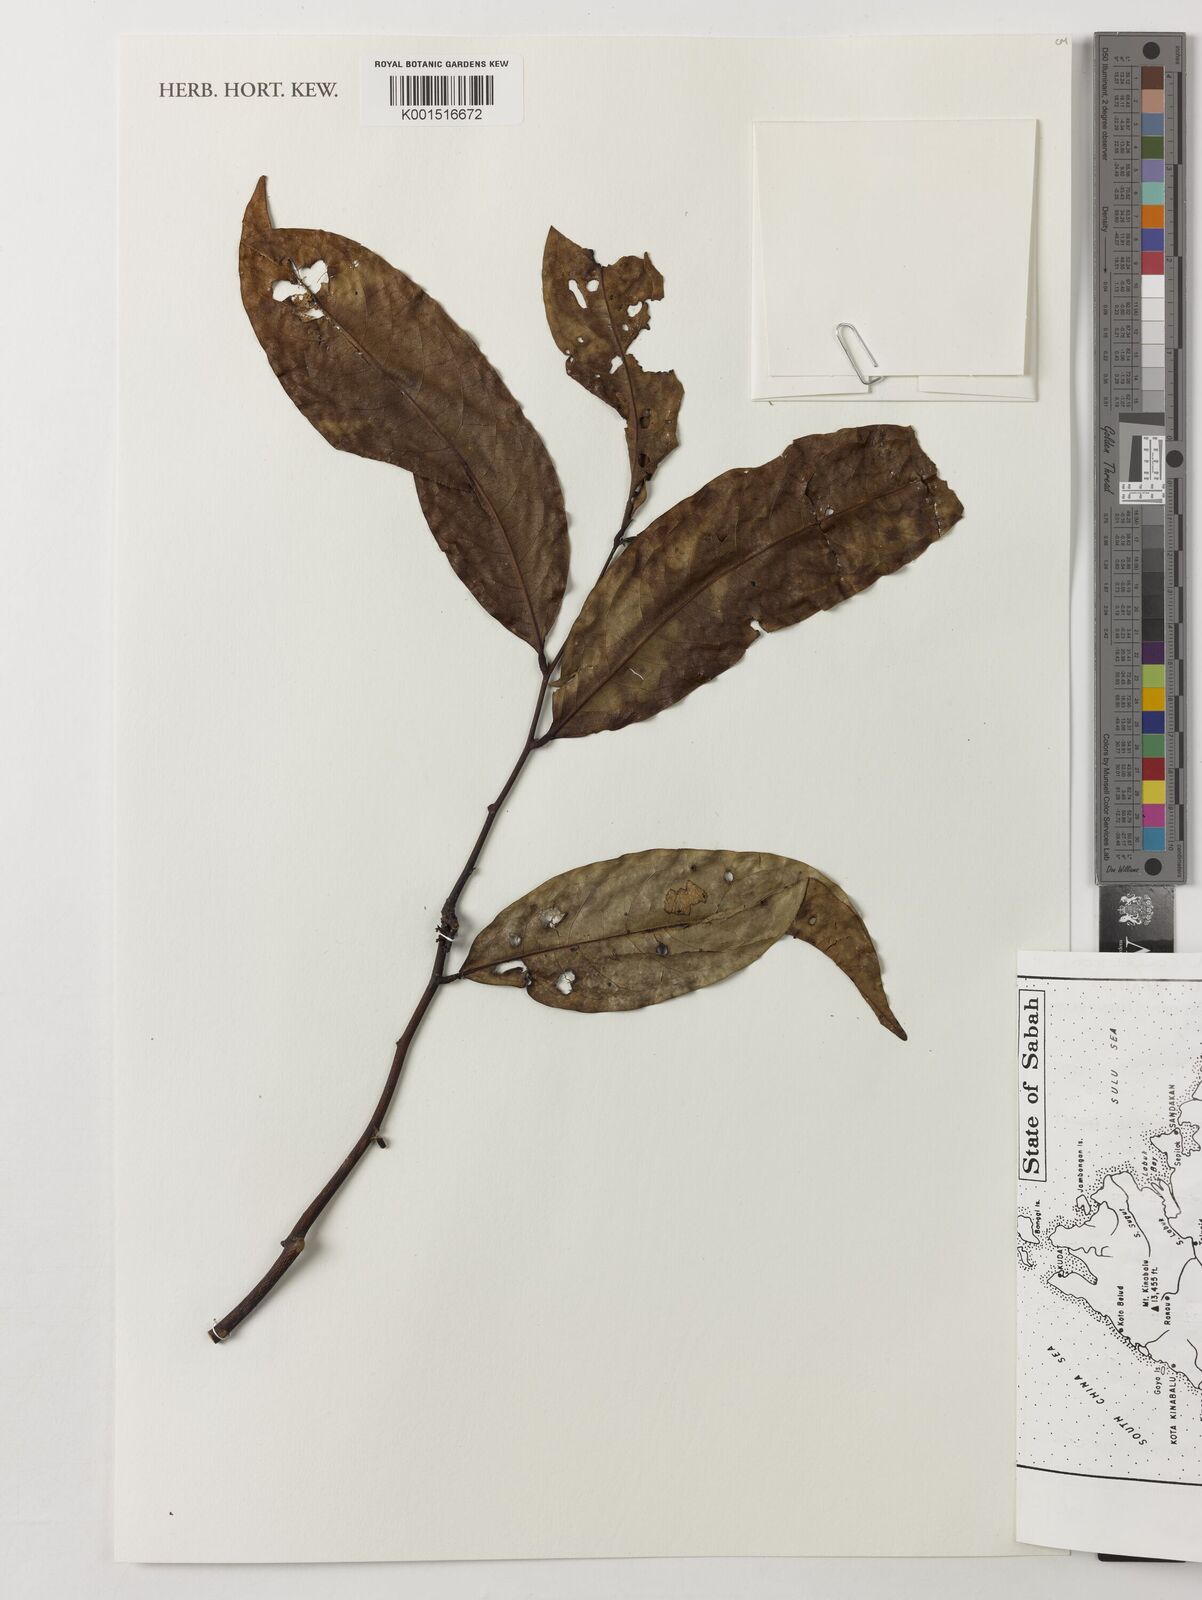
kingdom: Plantae
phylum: Tracheophyta
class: Magnoliopsida
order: Magnoliales
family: Annonaceae
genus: Artabotrys
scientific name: Artabotrys roseus
